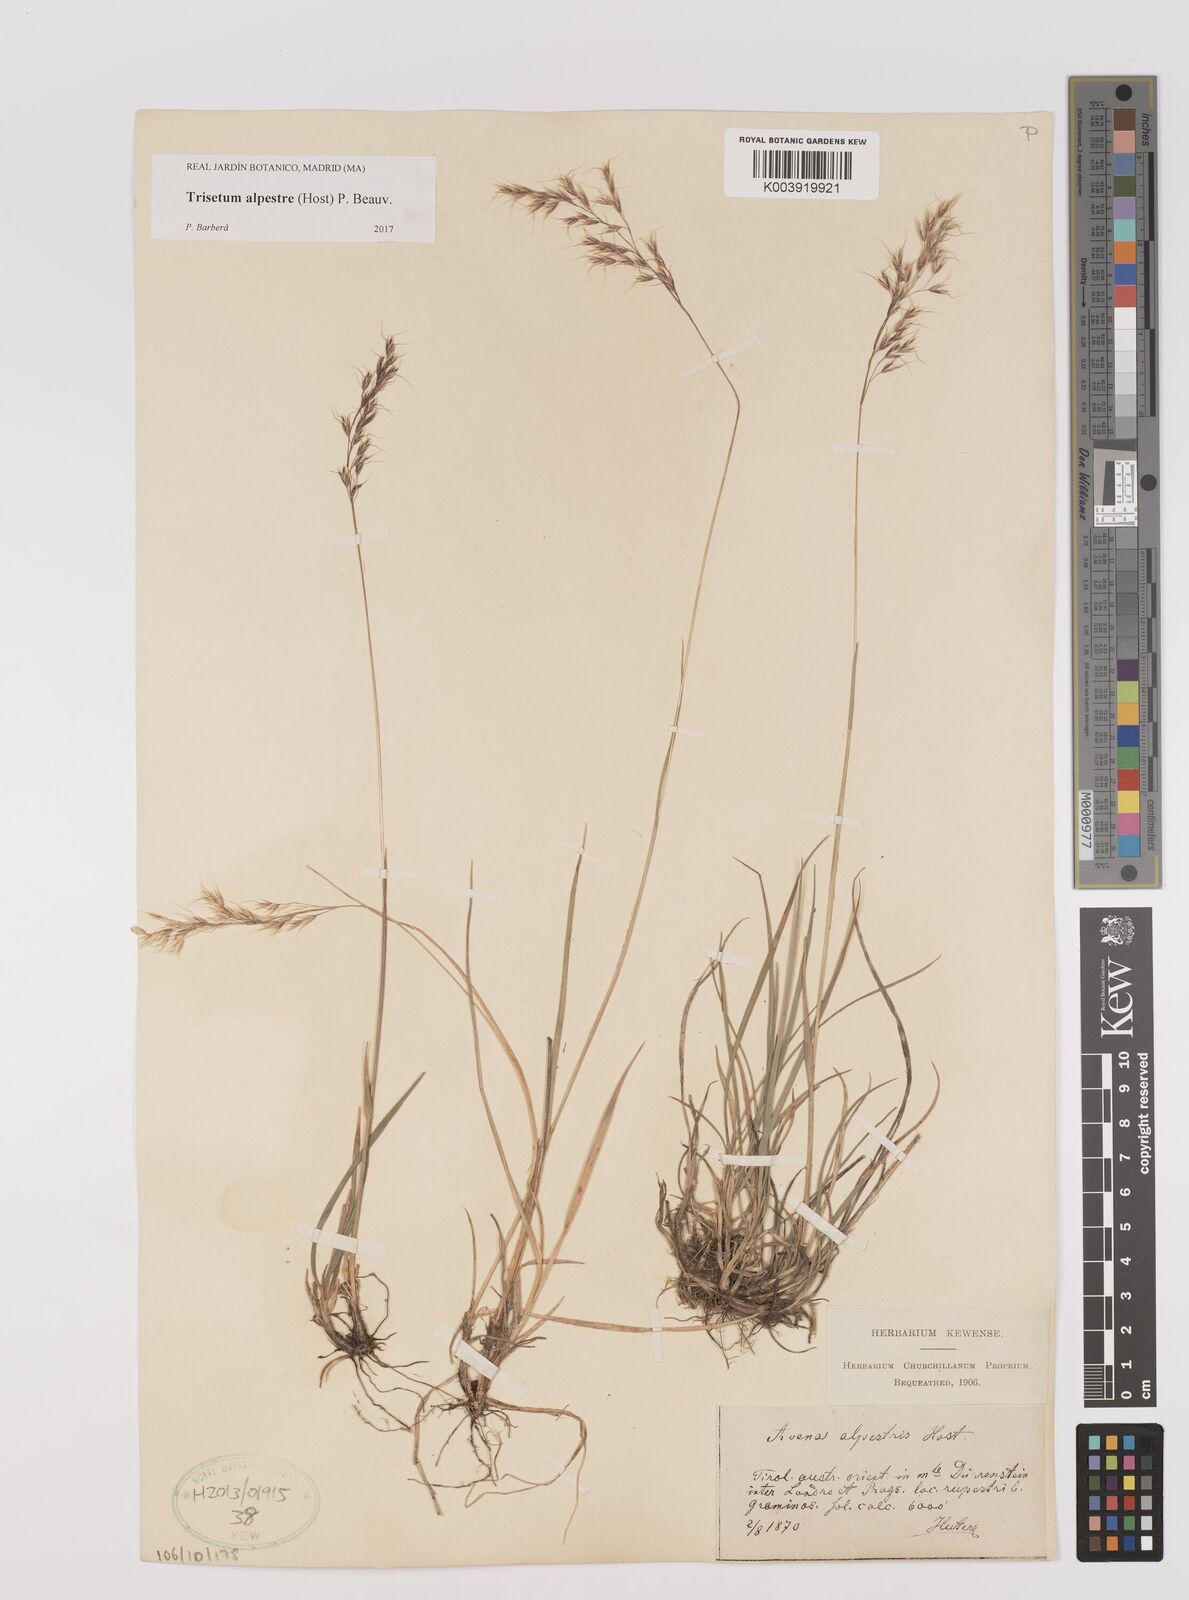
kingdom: Plantae
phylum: Tracheophyta
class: Liliopsida
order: Poales
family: Poaceae
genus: Trisetum
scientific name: Trisetum alpestre
